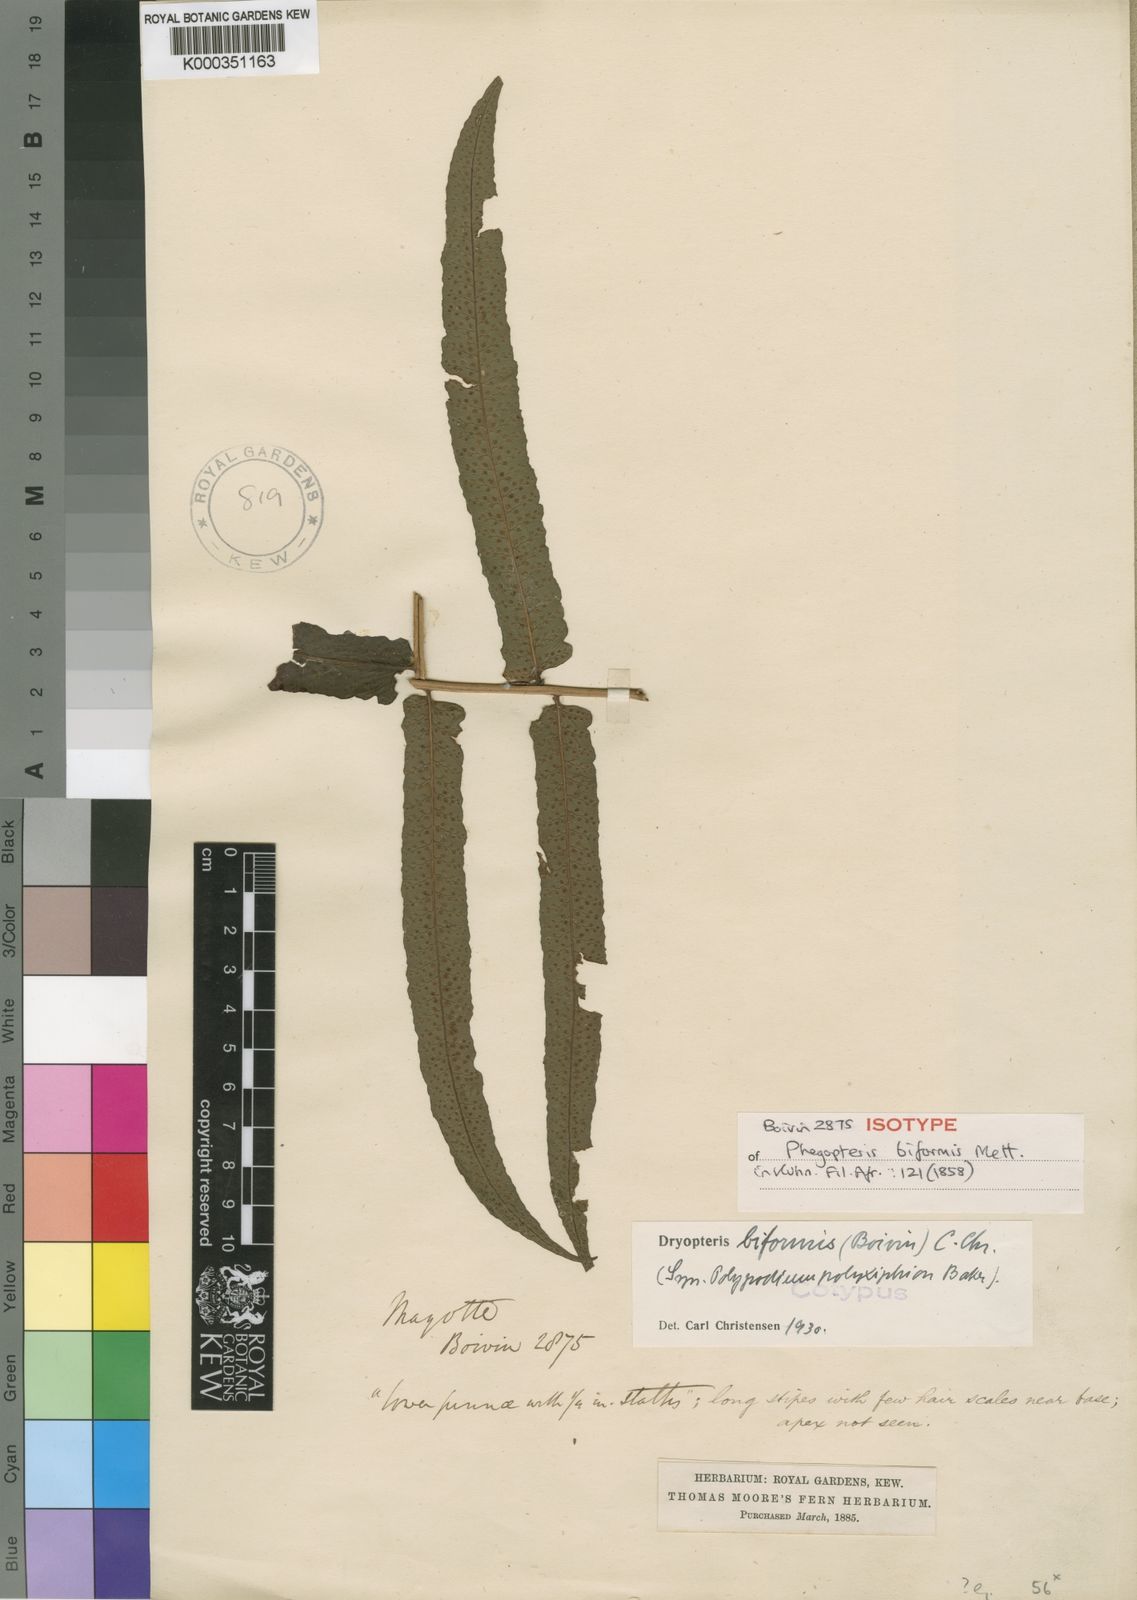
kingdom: Plantae
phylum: Tracheophyta
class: Polypodiopsida
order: Polypodiales
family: Dryopteridaceae
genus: Ctenitis
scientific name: Ctenitis biformis
